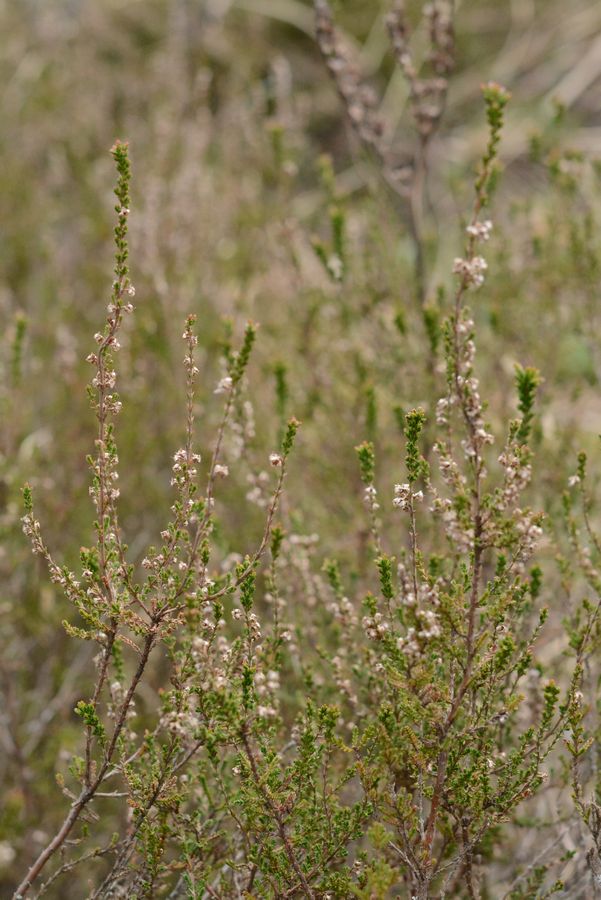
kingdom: Plantae
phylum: Tracheophyta
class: Magnoliopsida
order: Ericales
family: Ericaceae
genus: Calluna
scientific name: Calluna vulgaris
